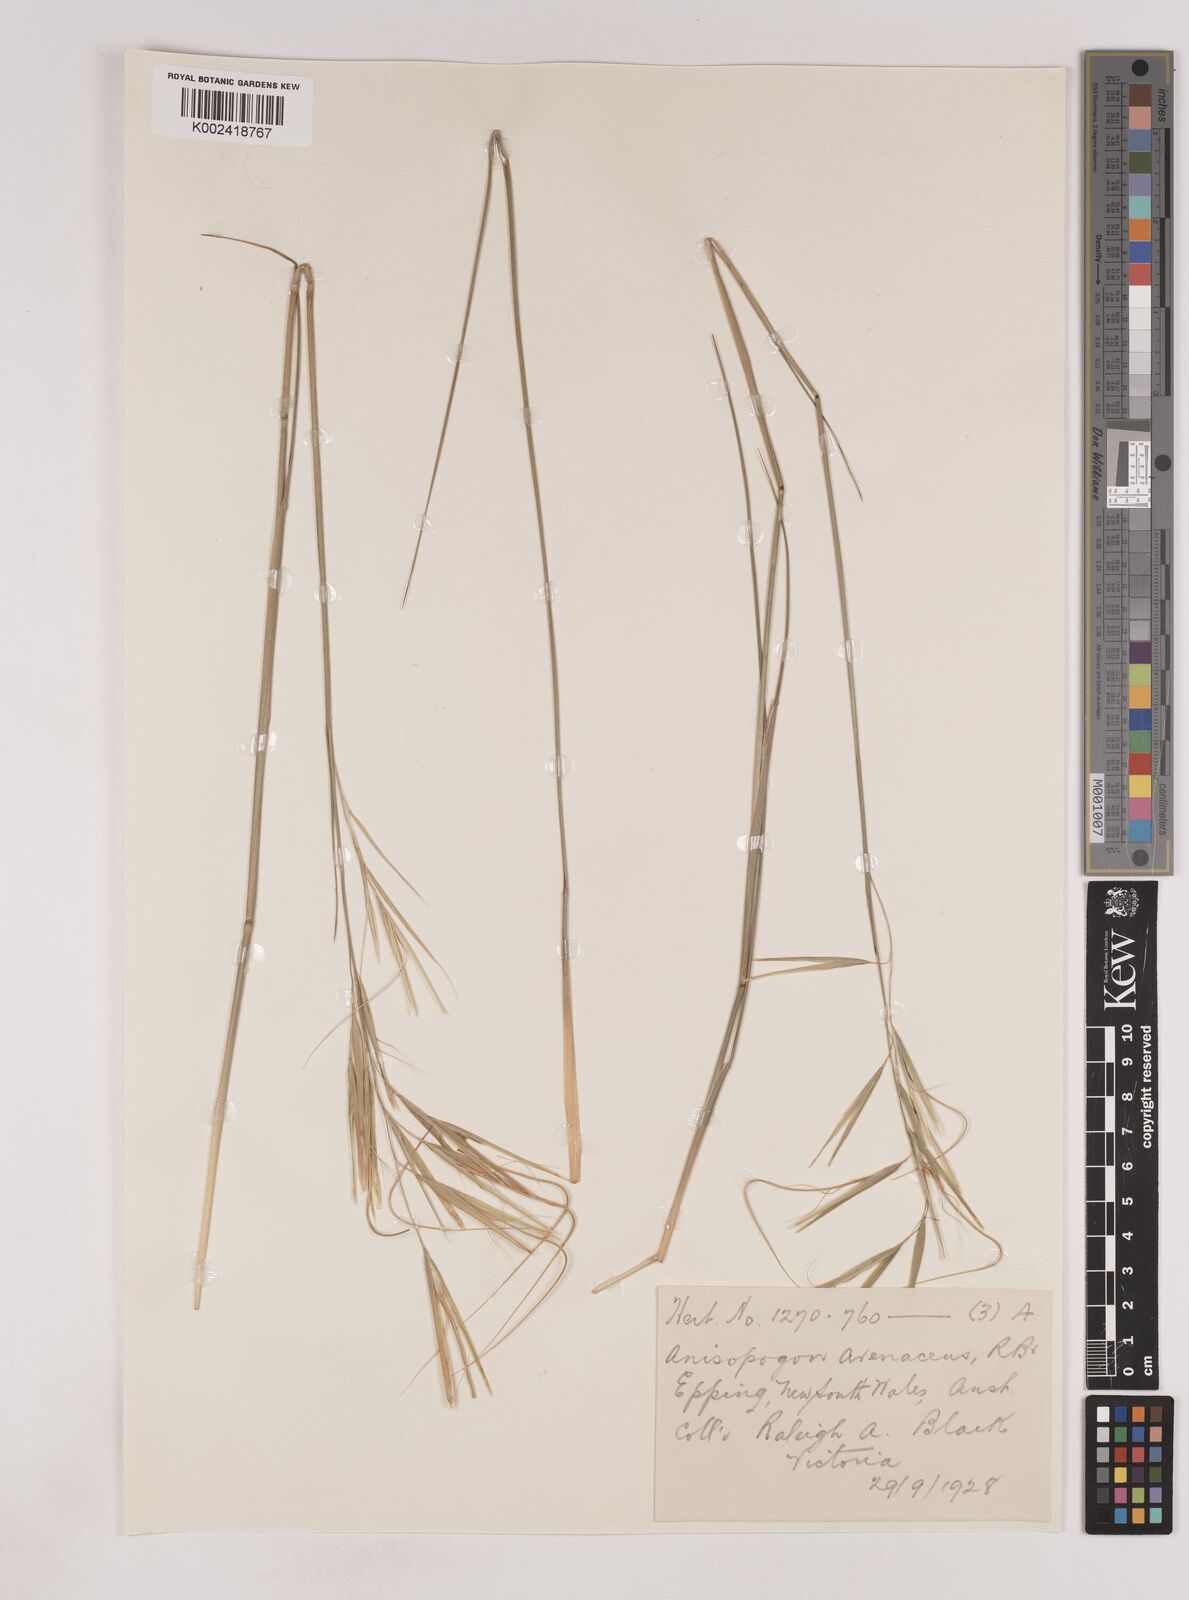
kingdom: Plantae
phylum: Tracheophyta
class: Liliopsida
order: Poales
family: Poaceae
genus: Anisopogon
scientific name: Anisopogon avenaceus
